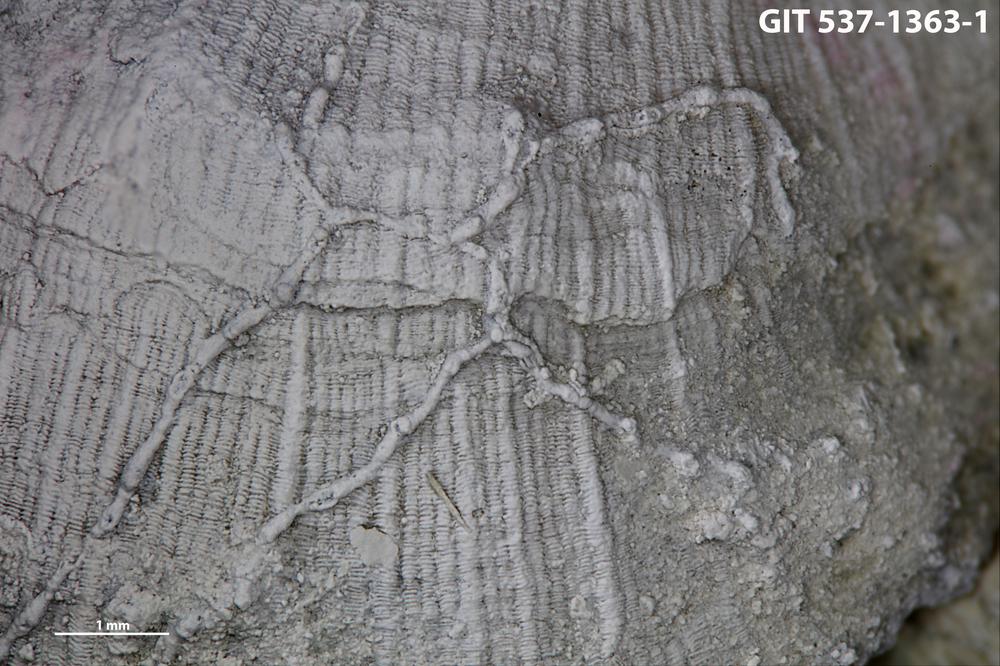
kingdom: Animalia
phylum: Bryozoa
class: Stenolaemata
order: Cyclostomatida
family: Corynotrypidae
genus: Corynotrypa
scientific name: Corynotrypa delicatula
